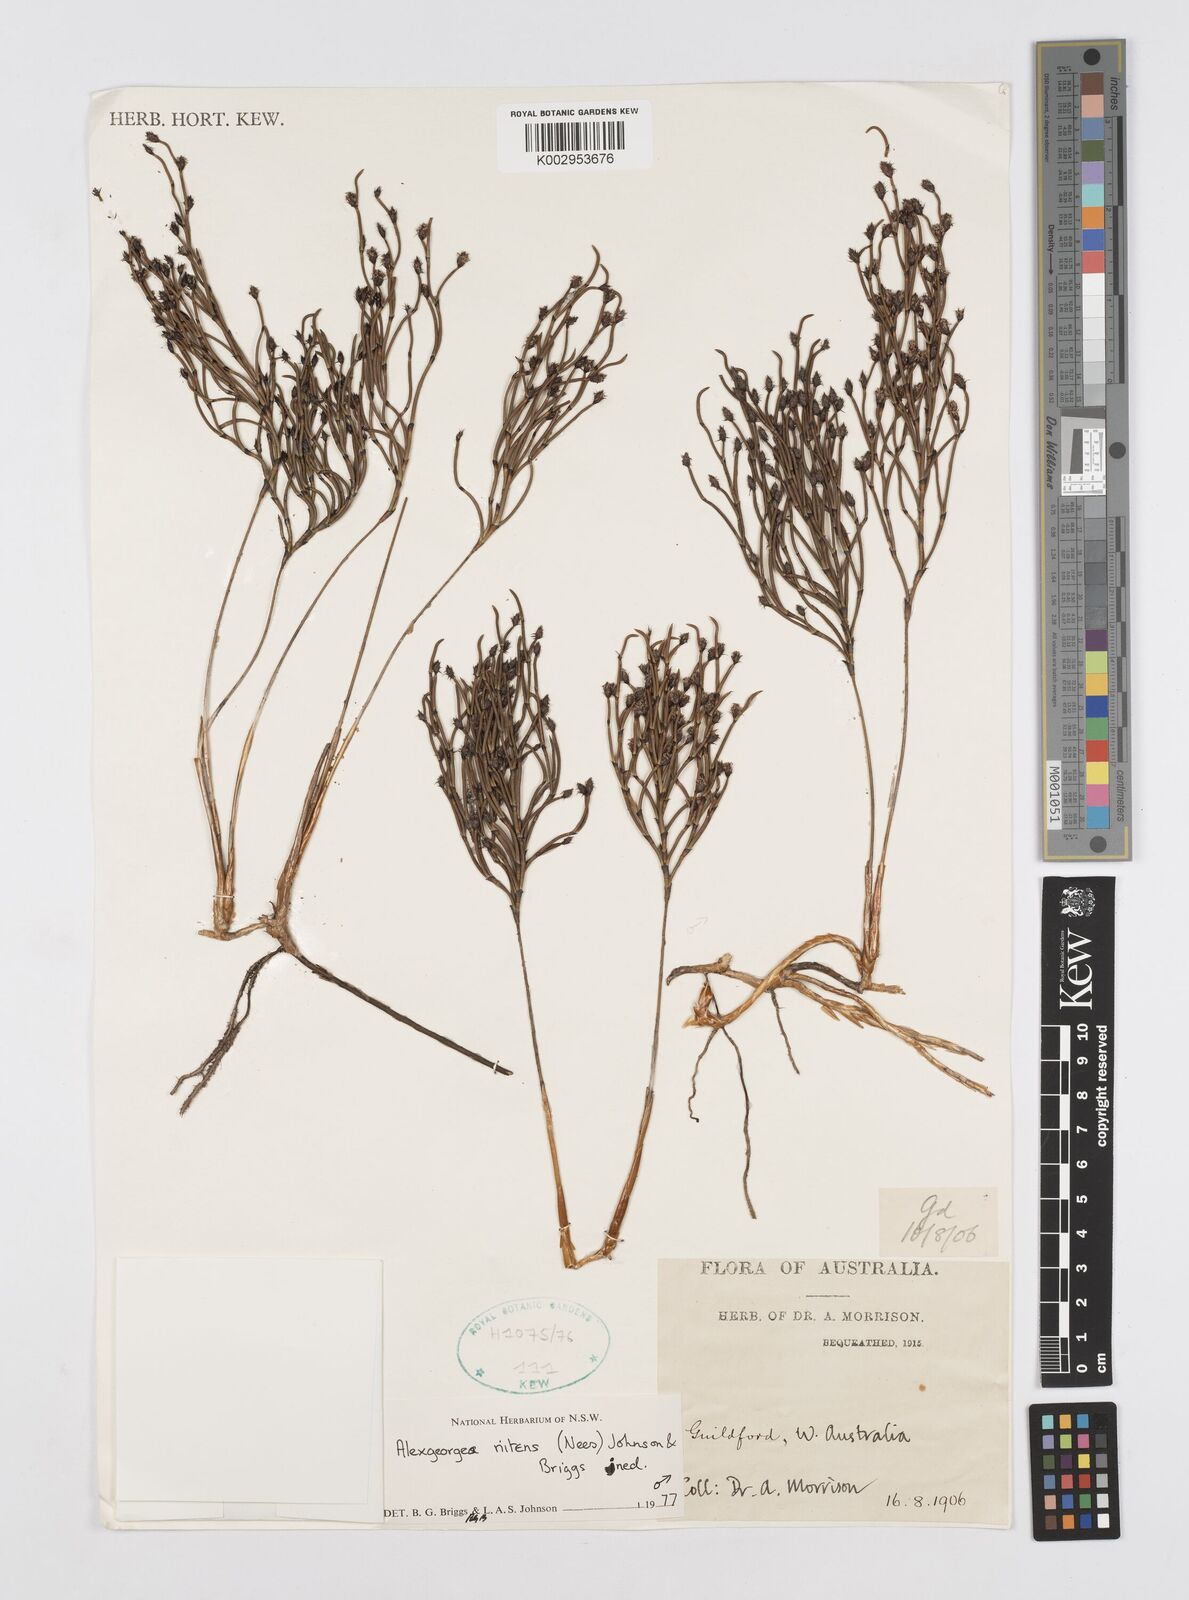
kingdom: Plantae
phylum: Tracheophyta
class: Liliopsida
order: Poales
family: Restionaceae
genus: Alexgeorgea
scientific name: Alexgeorgea nitens
